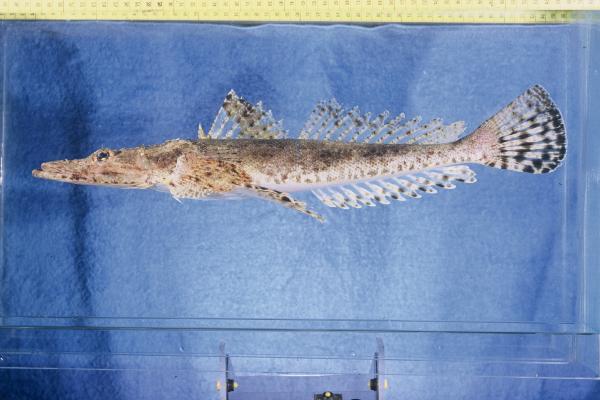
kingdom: Animalia
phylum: Chordata
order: Scorpaeniformes
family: Platycephalidae
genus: Papilloculiceps
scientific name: Papilloculiceps longiceps
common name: Tentacled flathead
